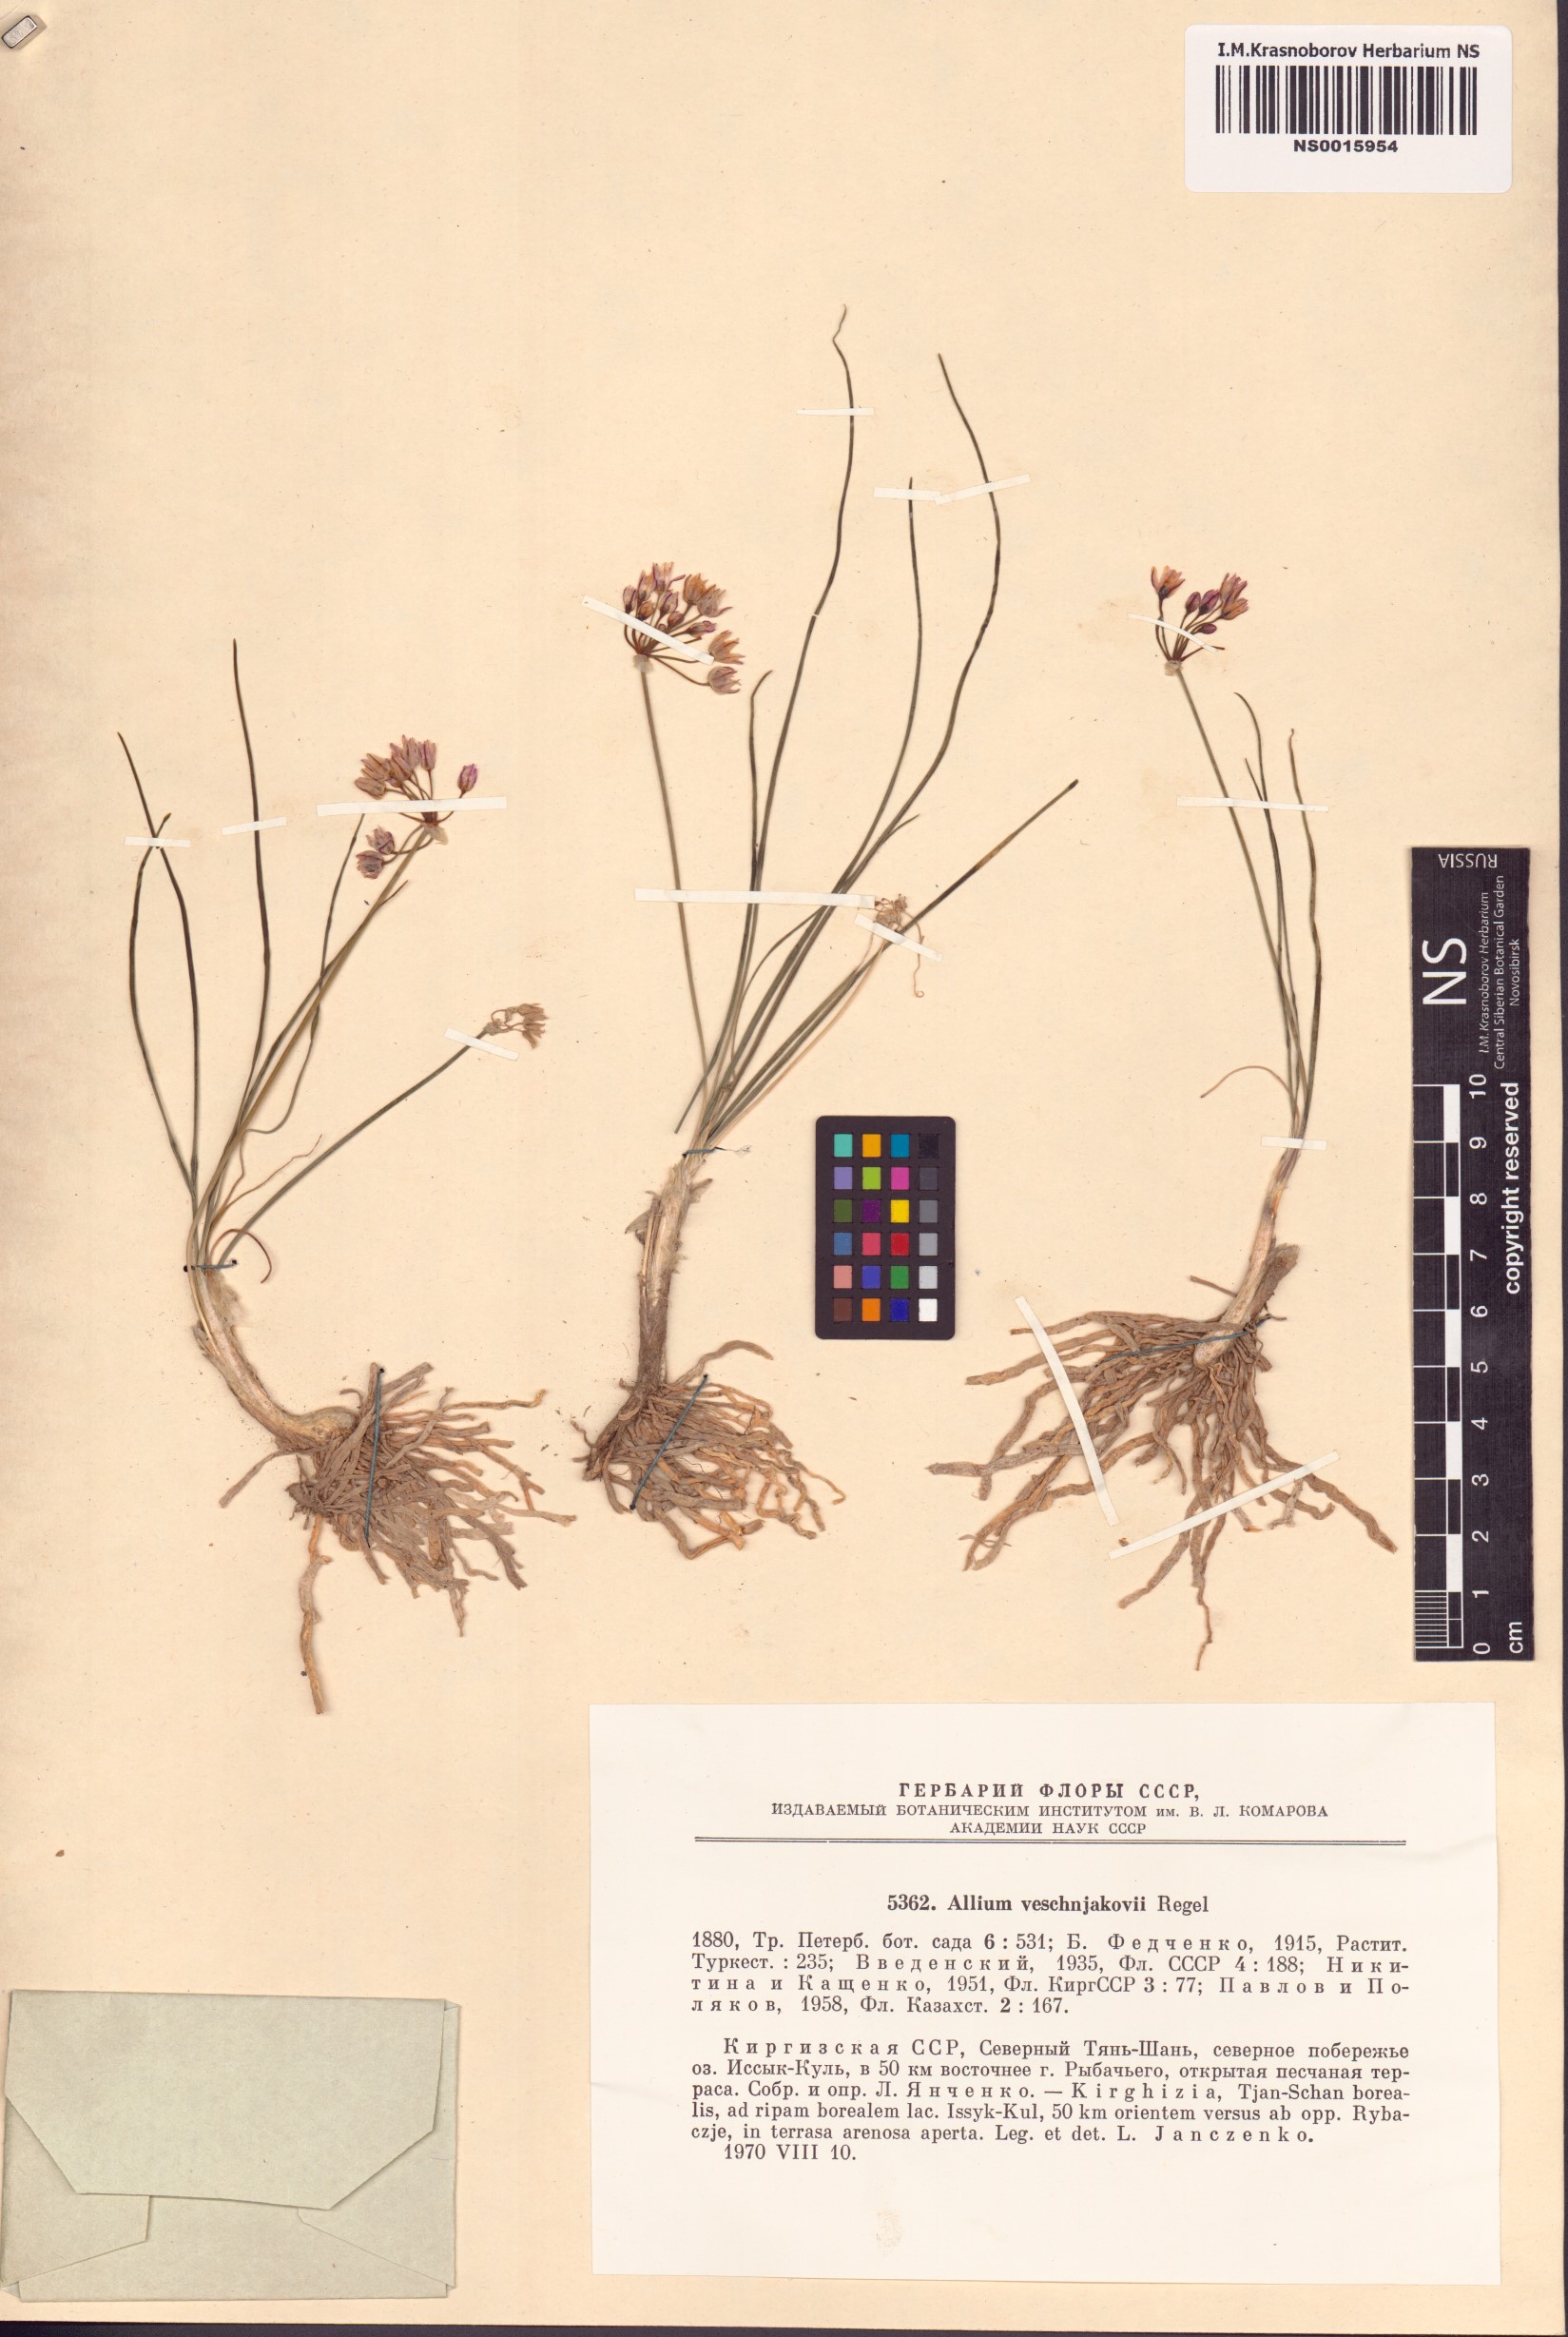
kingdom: Plantae
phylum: Tracheophyta
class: Liliopsida
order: Asparagales
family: Amaryllidaceae
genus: Allium
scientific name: Allium weschniakowii
